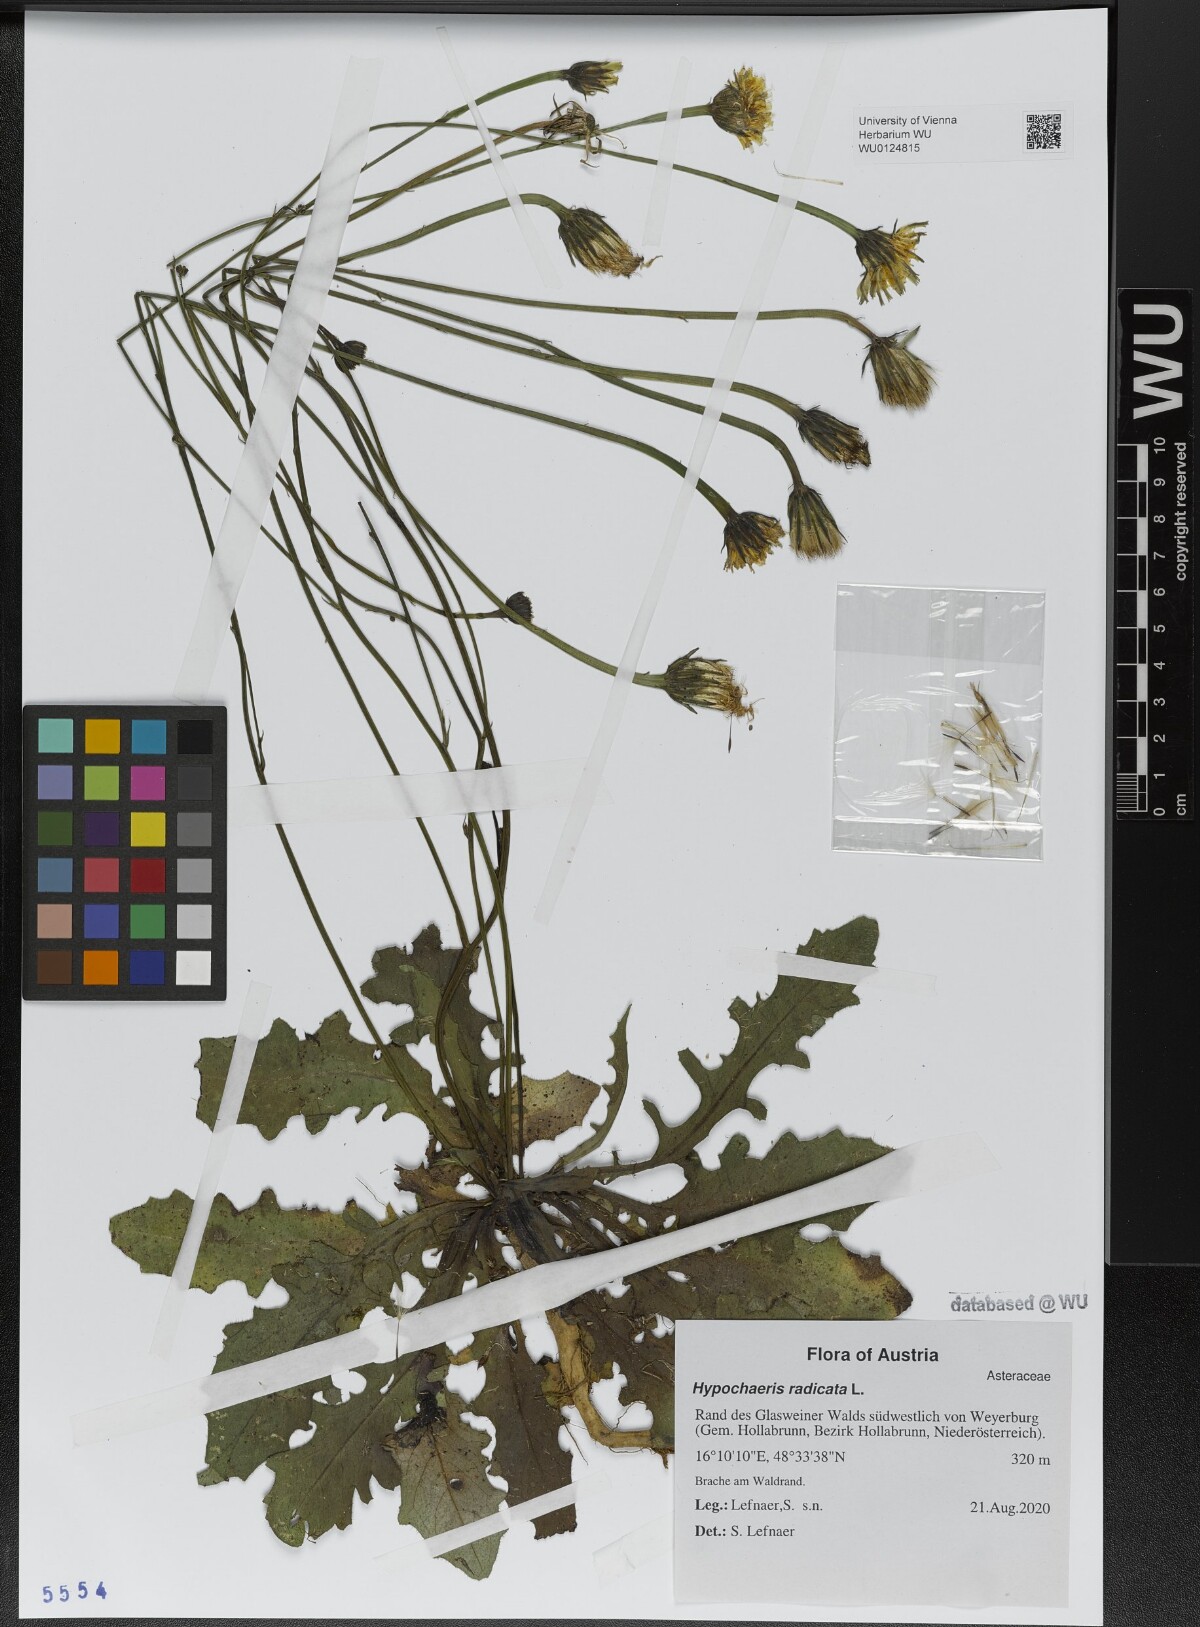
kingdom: Plantae
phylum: Tracheophyta
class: Magnoliopsida
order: Asterales
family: Asteraceae
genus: Hypochaeris
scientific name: Hypochaeris radicata
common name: Flatweed
